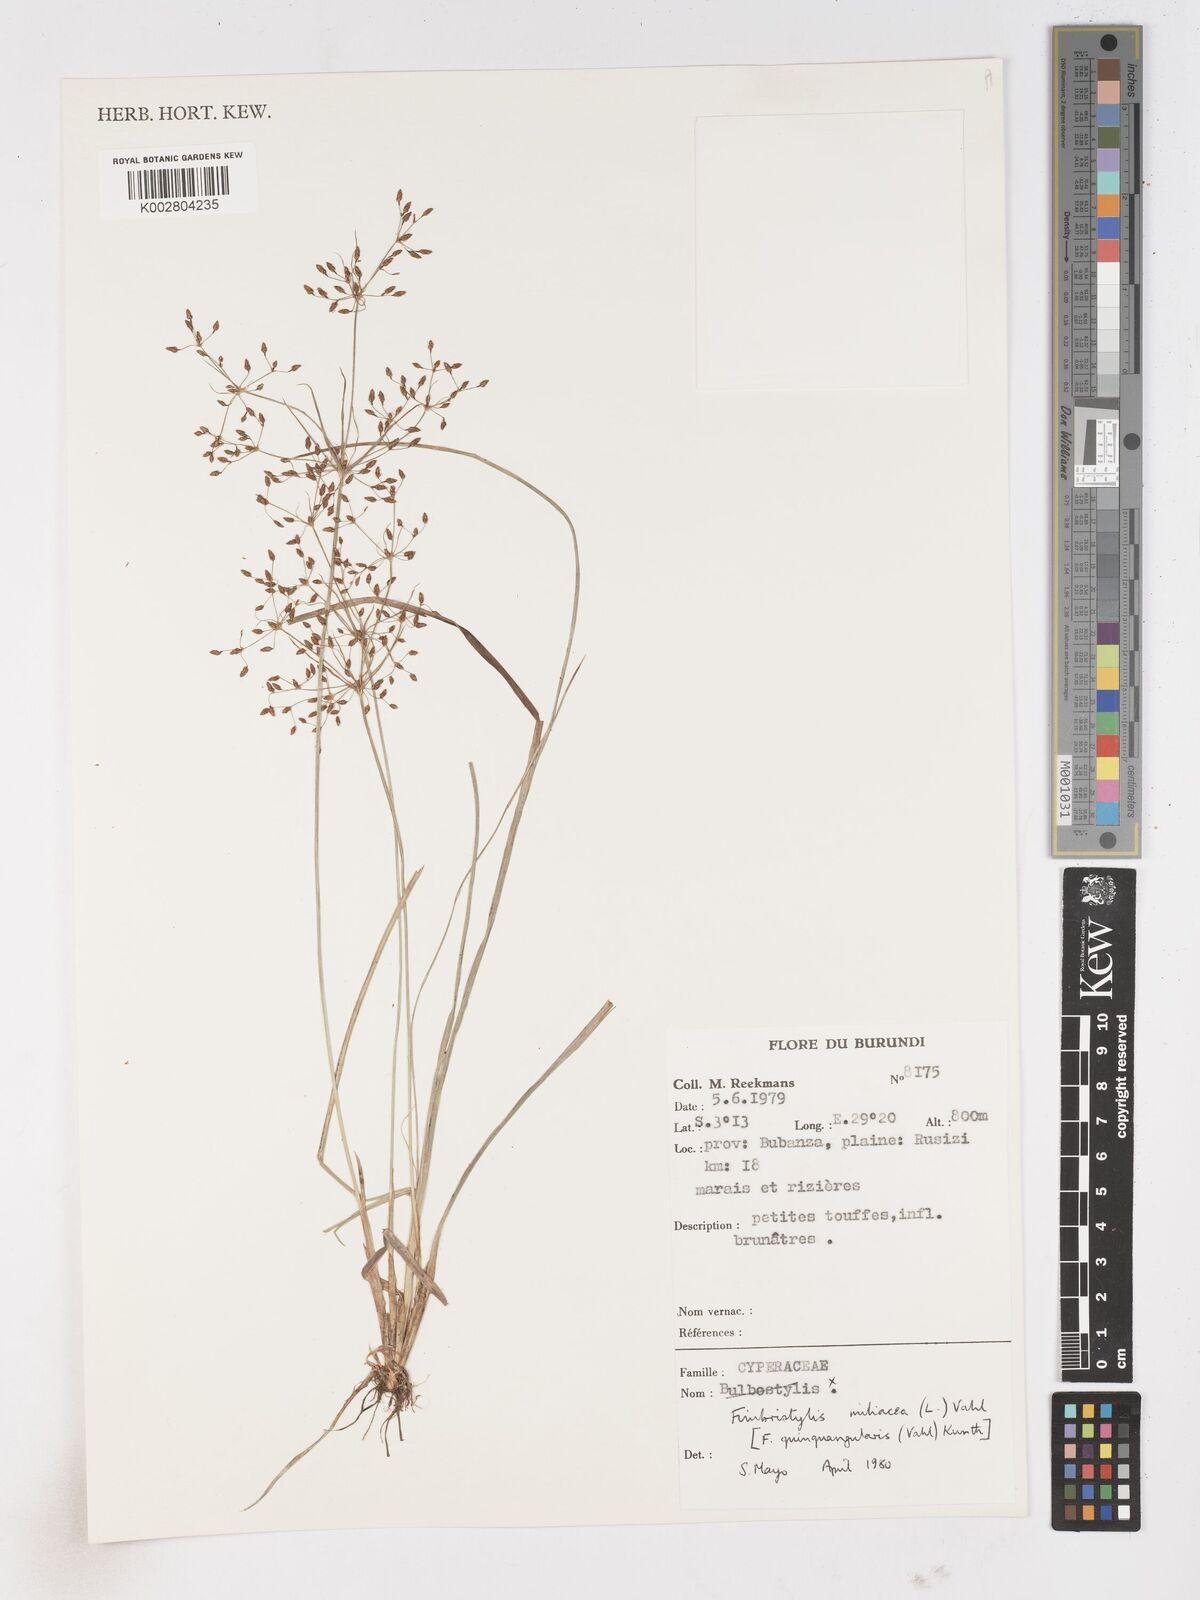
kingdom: Plantae
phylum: Tracheophyta
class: Liliopsida
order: Poales
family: Cyperaceae
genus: Fimbristylis
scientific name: Fimbristylis quinquangularis
